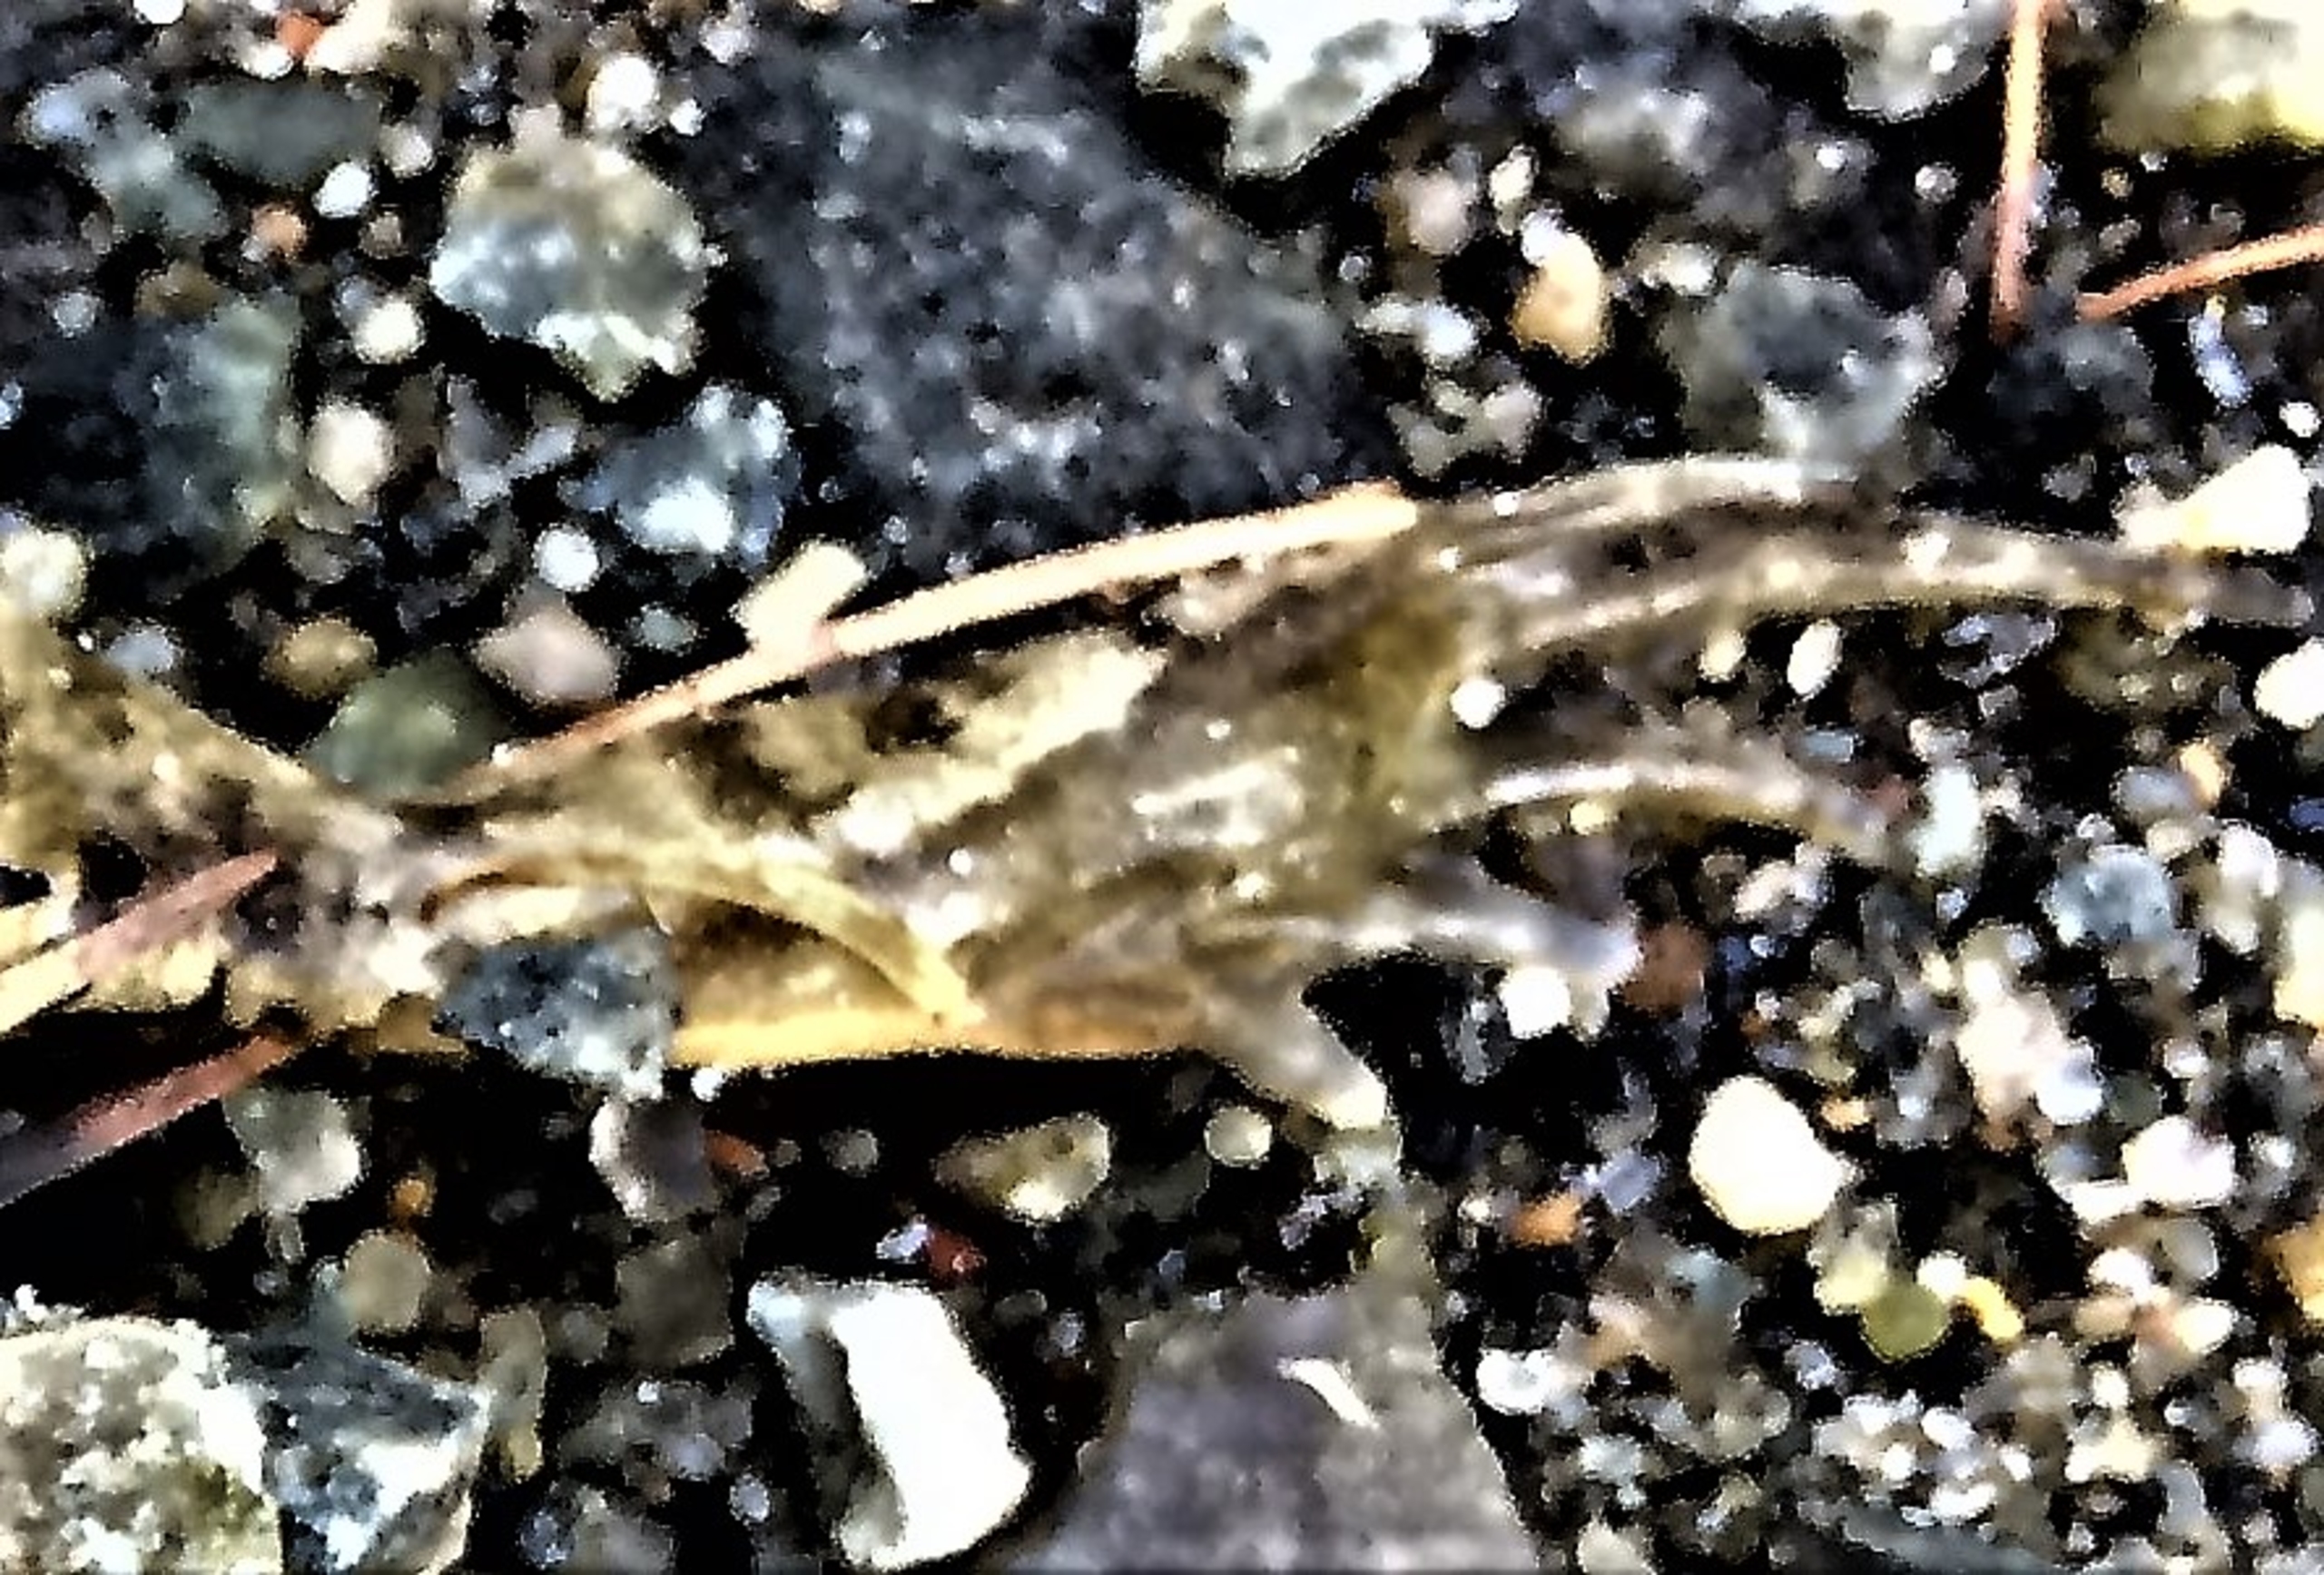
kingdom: Animalia
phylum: Chordata
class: Amphibia
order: Anura
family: Ranidae
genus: Rana
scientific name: Rana arvalis
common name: Spidssnudet frø
